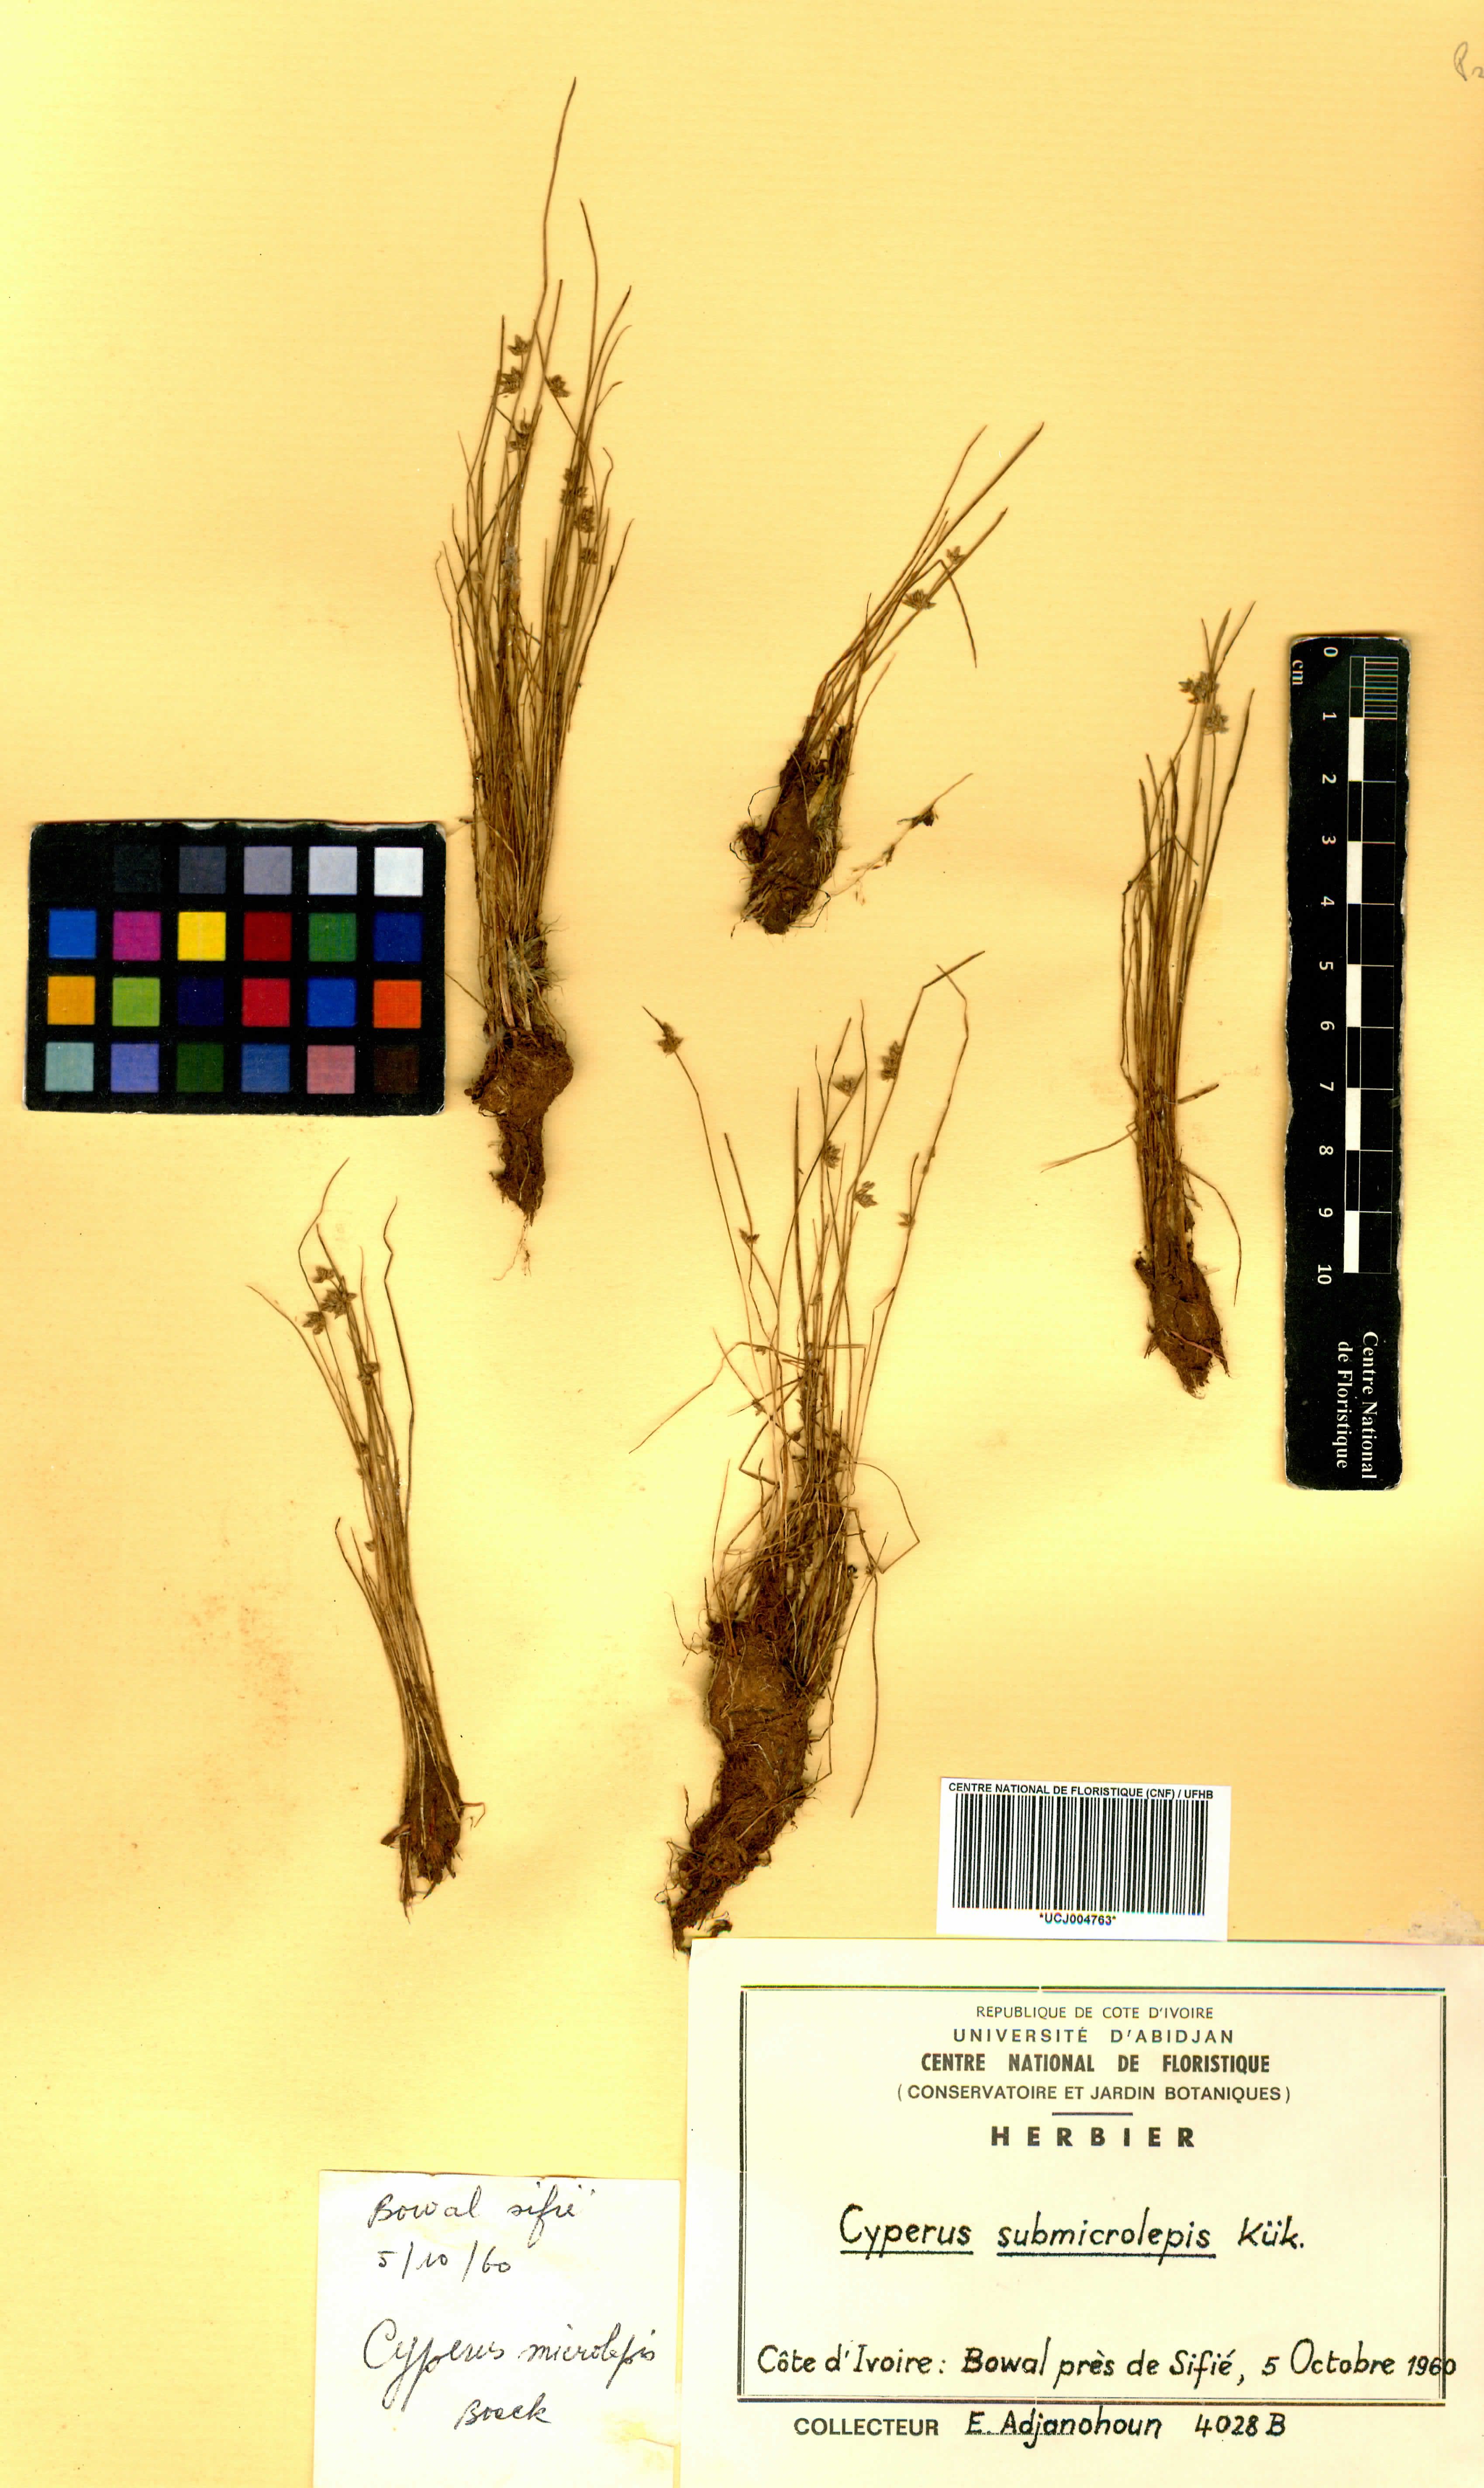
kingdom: Plantae
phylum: Tracheophyta
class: Liliopsida
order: Poales
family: Cyperaceae
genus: Cyperus
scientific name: Cyperus submicrolepis
